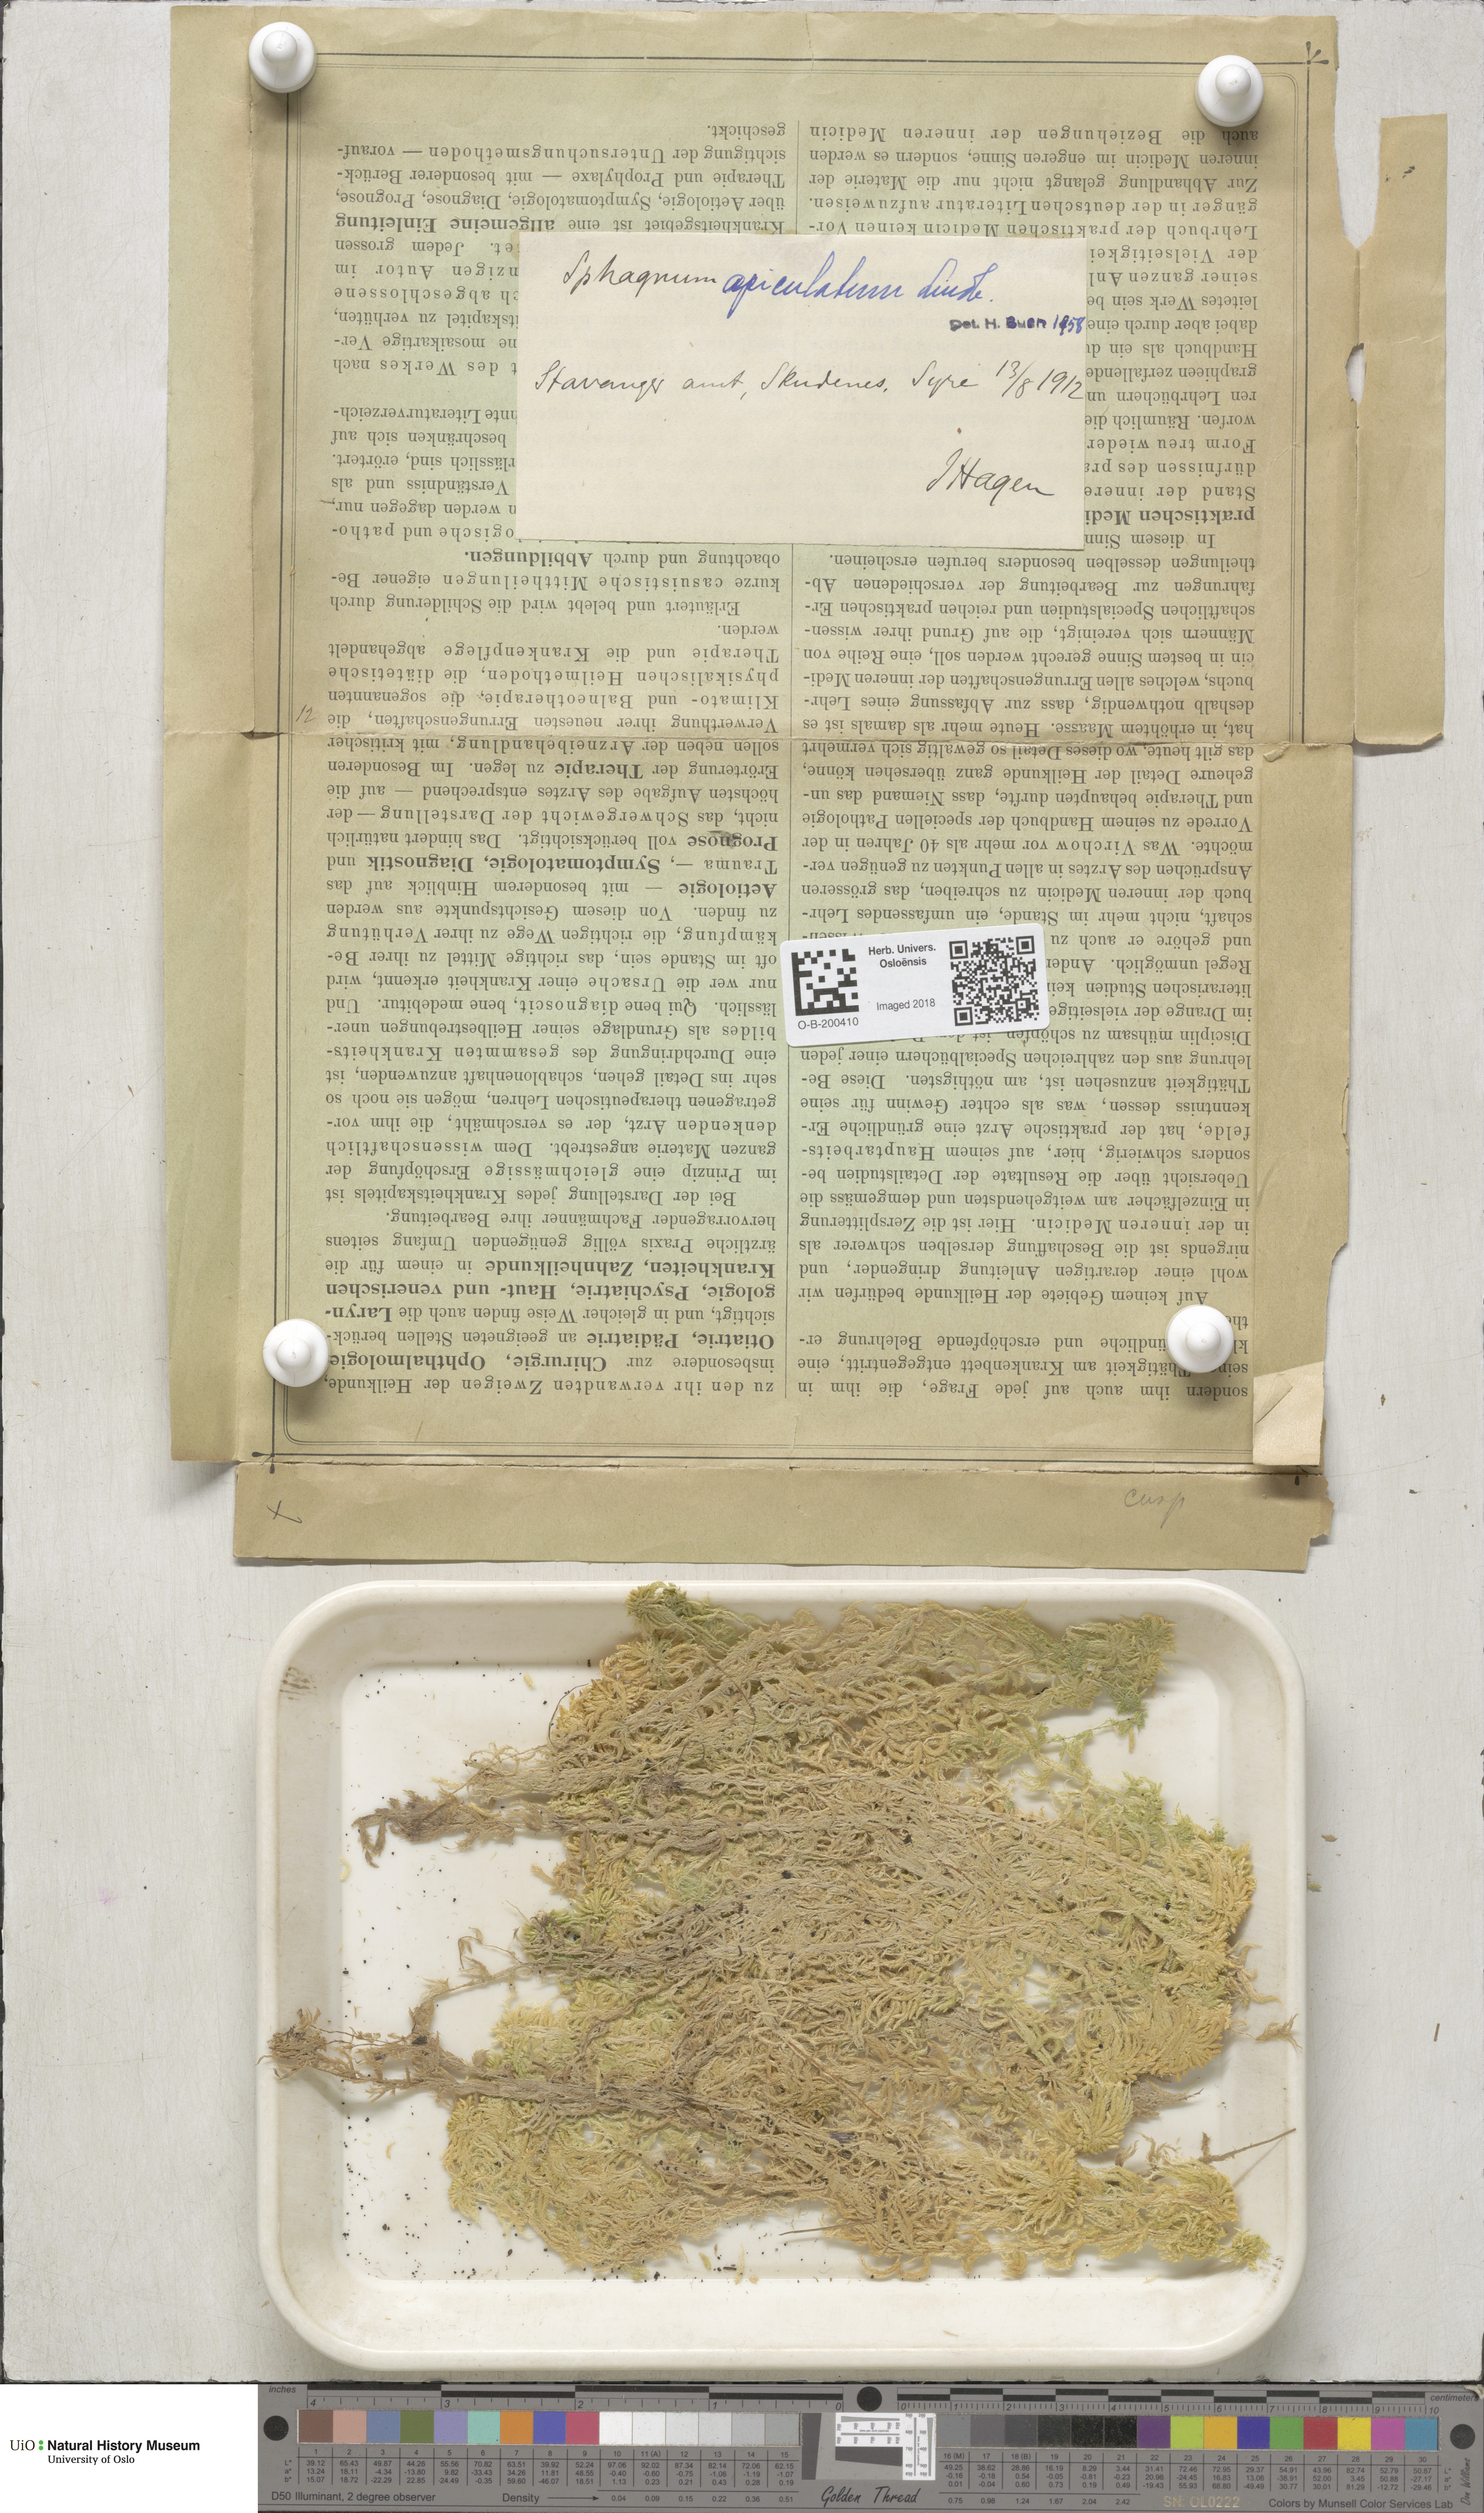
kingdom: Plantae
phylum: Bryophyta
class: Sphagnopsida
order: Sphagnales
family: Sphagnaceae
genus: Sphagnum
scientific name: Sphagnum fallax
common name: Flat-top peat moss
